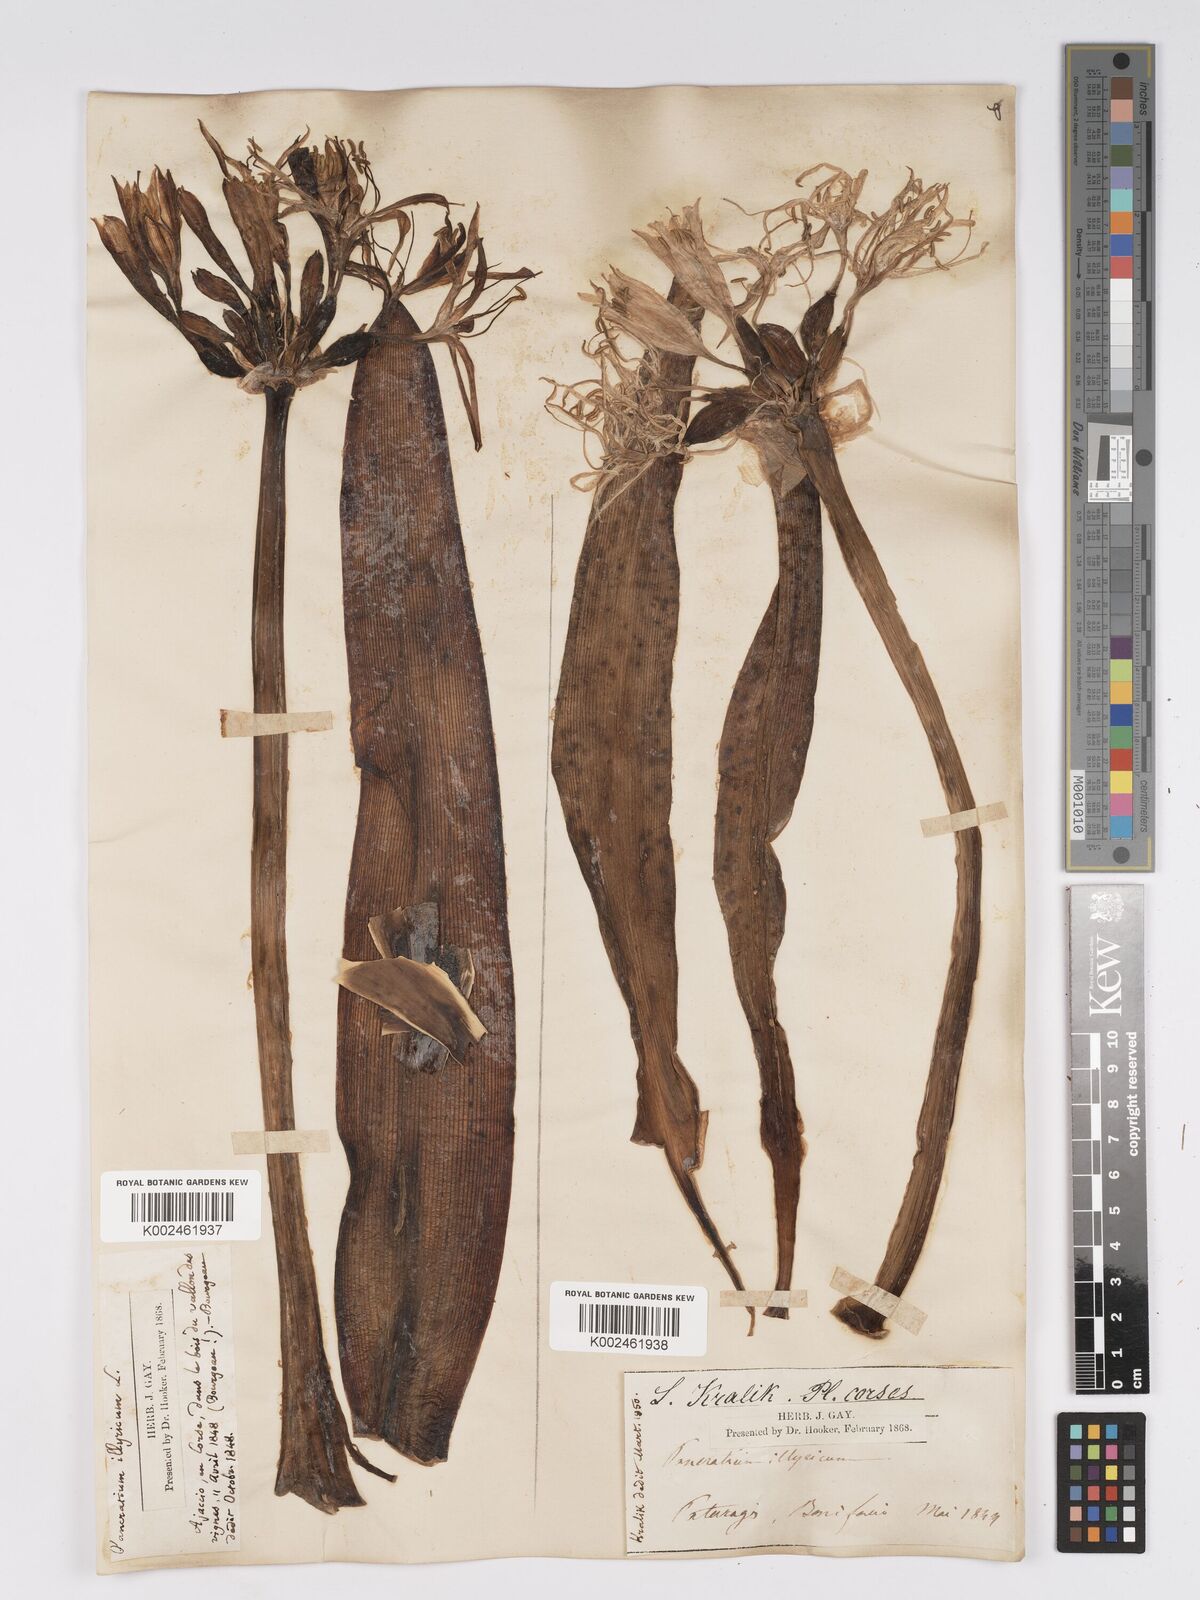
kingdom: Plantae
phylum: Tracheophyta
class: Liliopsida
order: Asparagales
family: Amaryllidaceae
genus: Pancratium
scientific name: Pancratium illyricum
